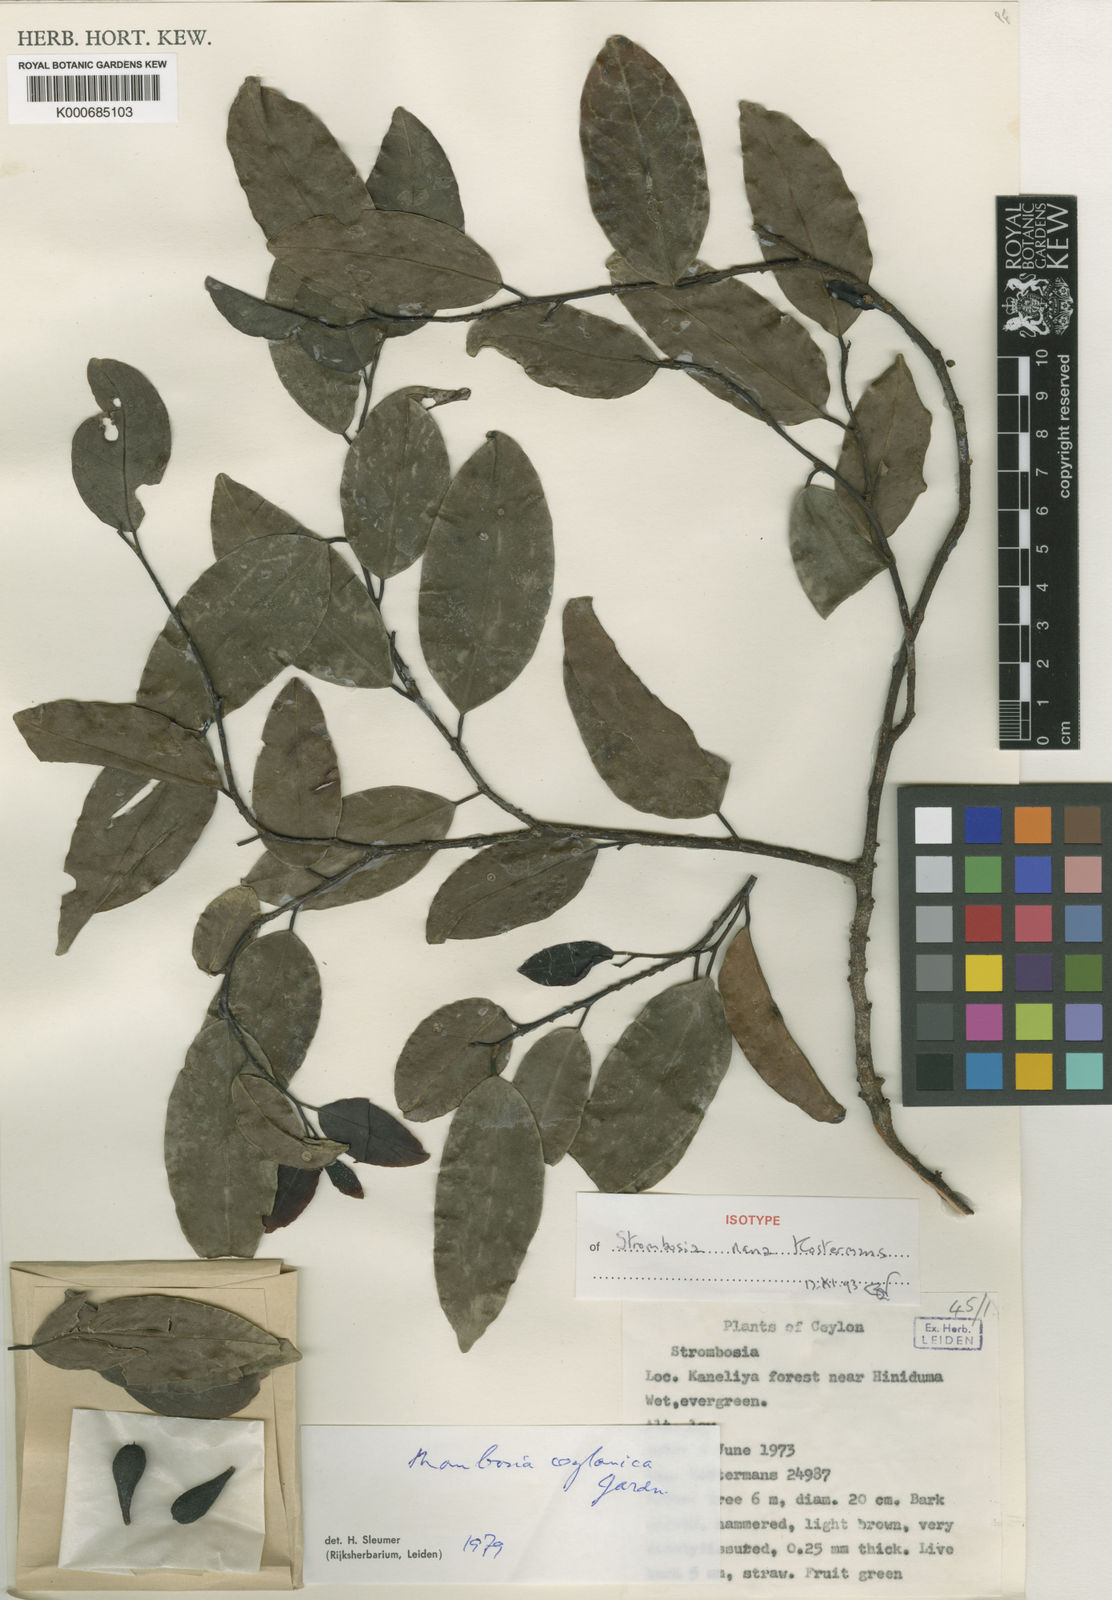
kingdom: Plantae
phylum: Tracheophyta
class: Magnoliopsida
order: Santalales
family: Strombosiaceae
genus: Strombosia
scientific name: Strombosia ceylanica
